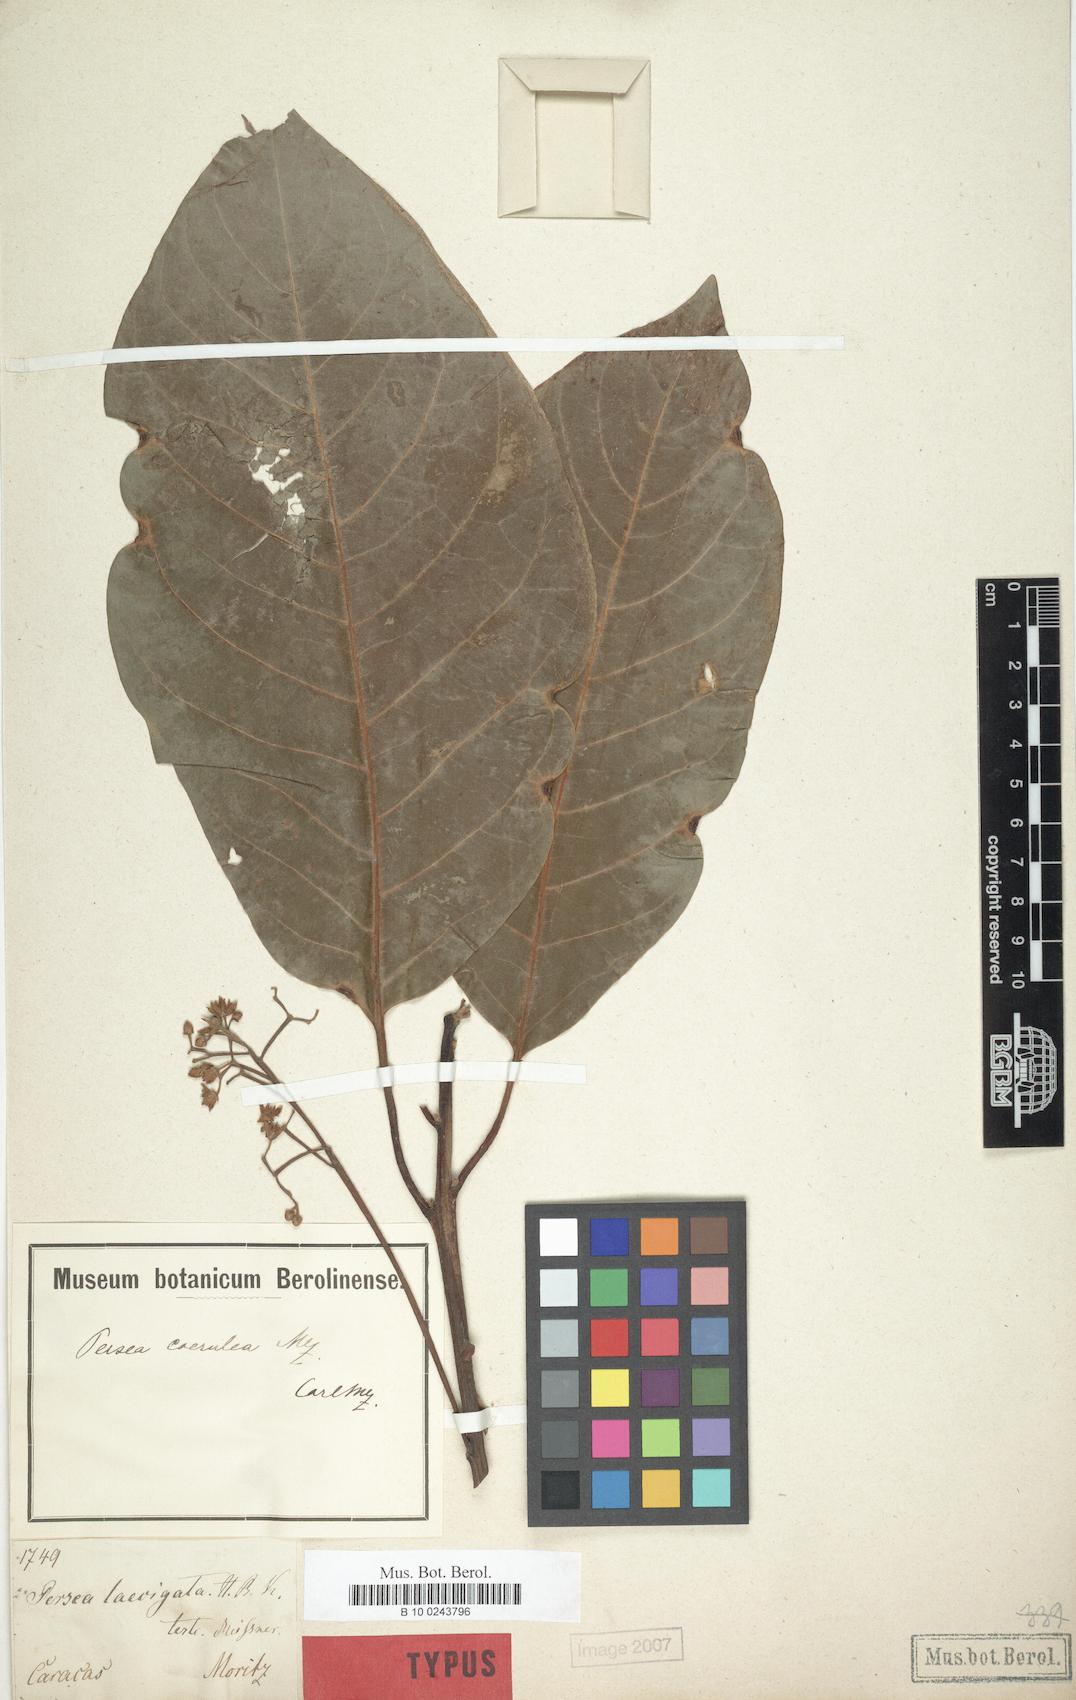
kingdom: Plantae
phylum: Tracheophyta
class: Magnoliopsida
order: Laurales
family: Lauraceae
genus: Persea
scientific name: Persea caerulea
